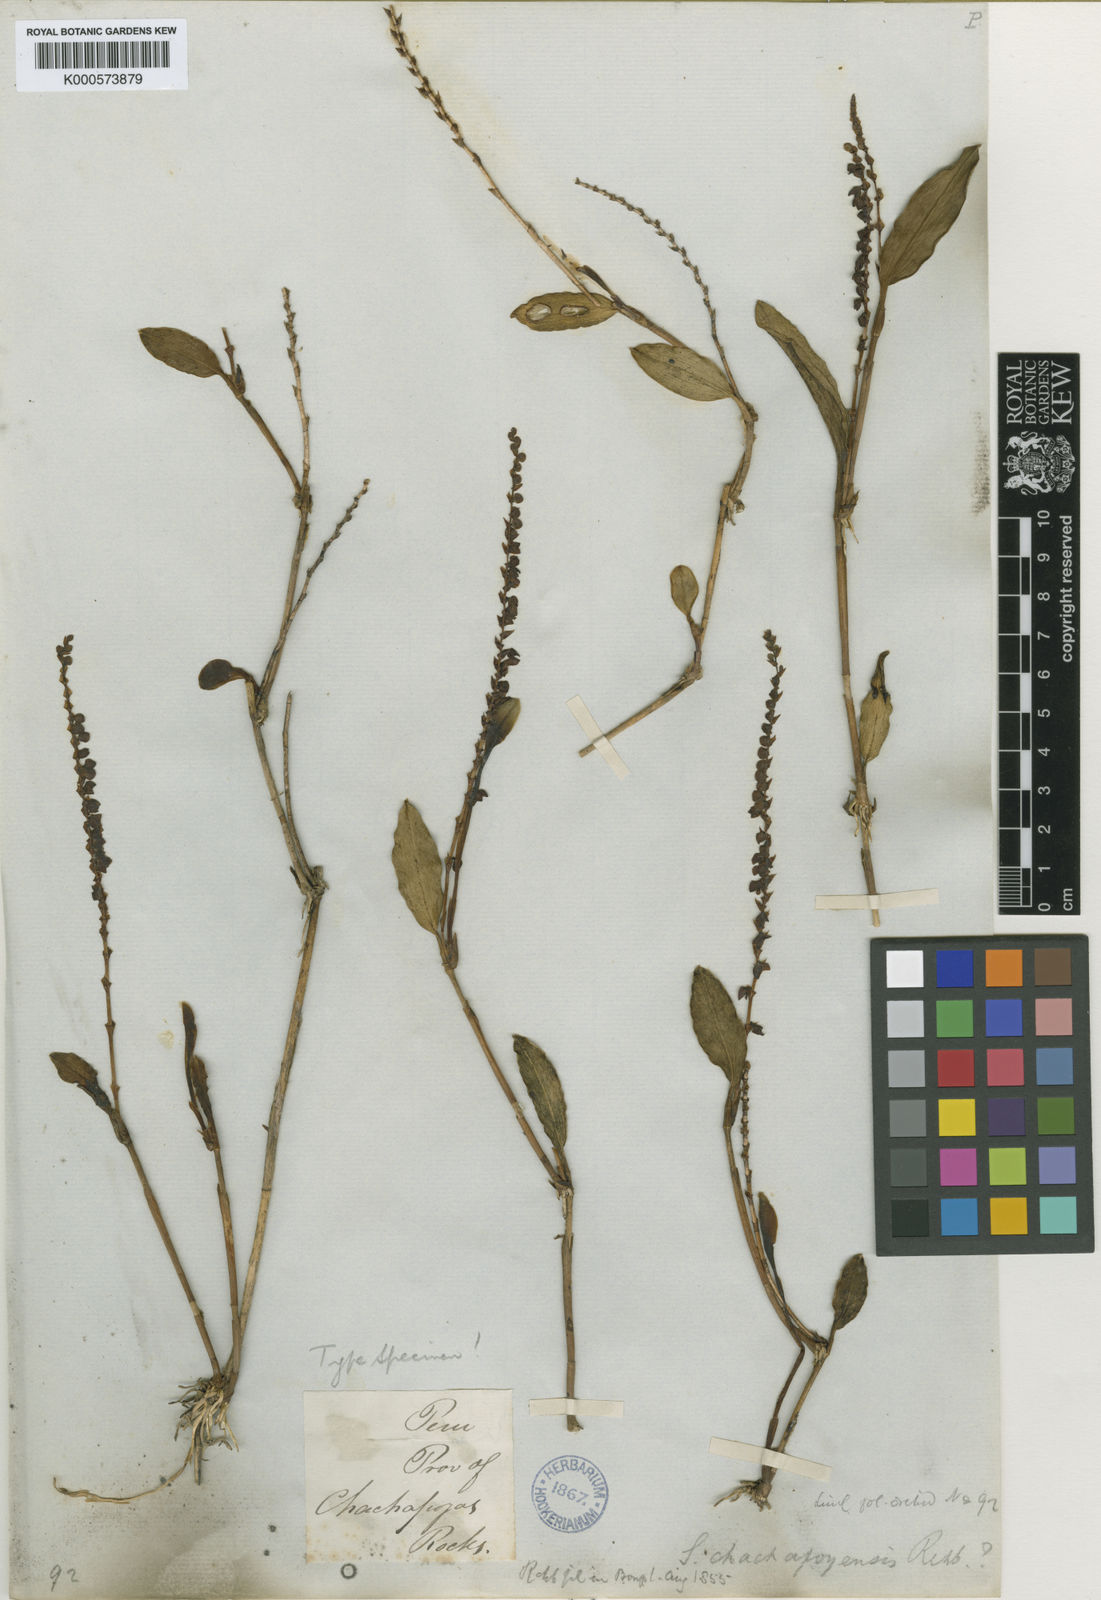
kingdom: Plantae
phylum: Tracheophyta
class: Liliopsida
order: Asparagales
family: Orchidaceae
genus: Stelis
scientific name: Stelis oblongifolia
